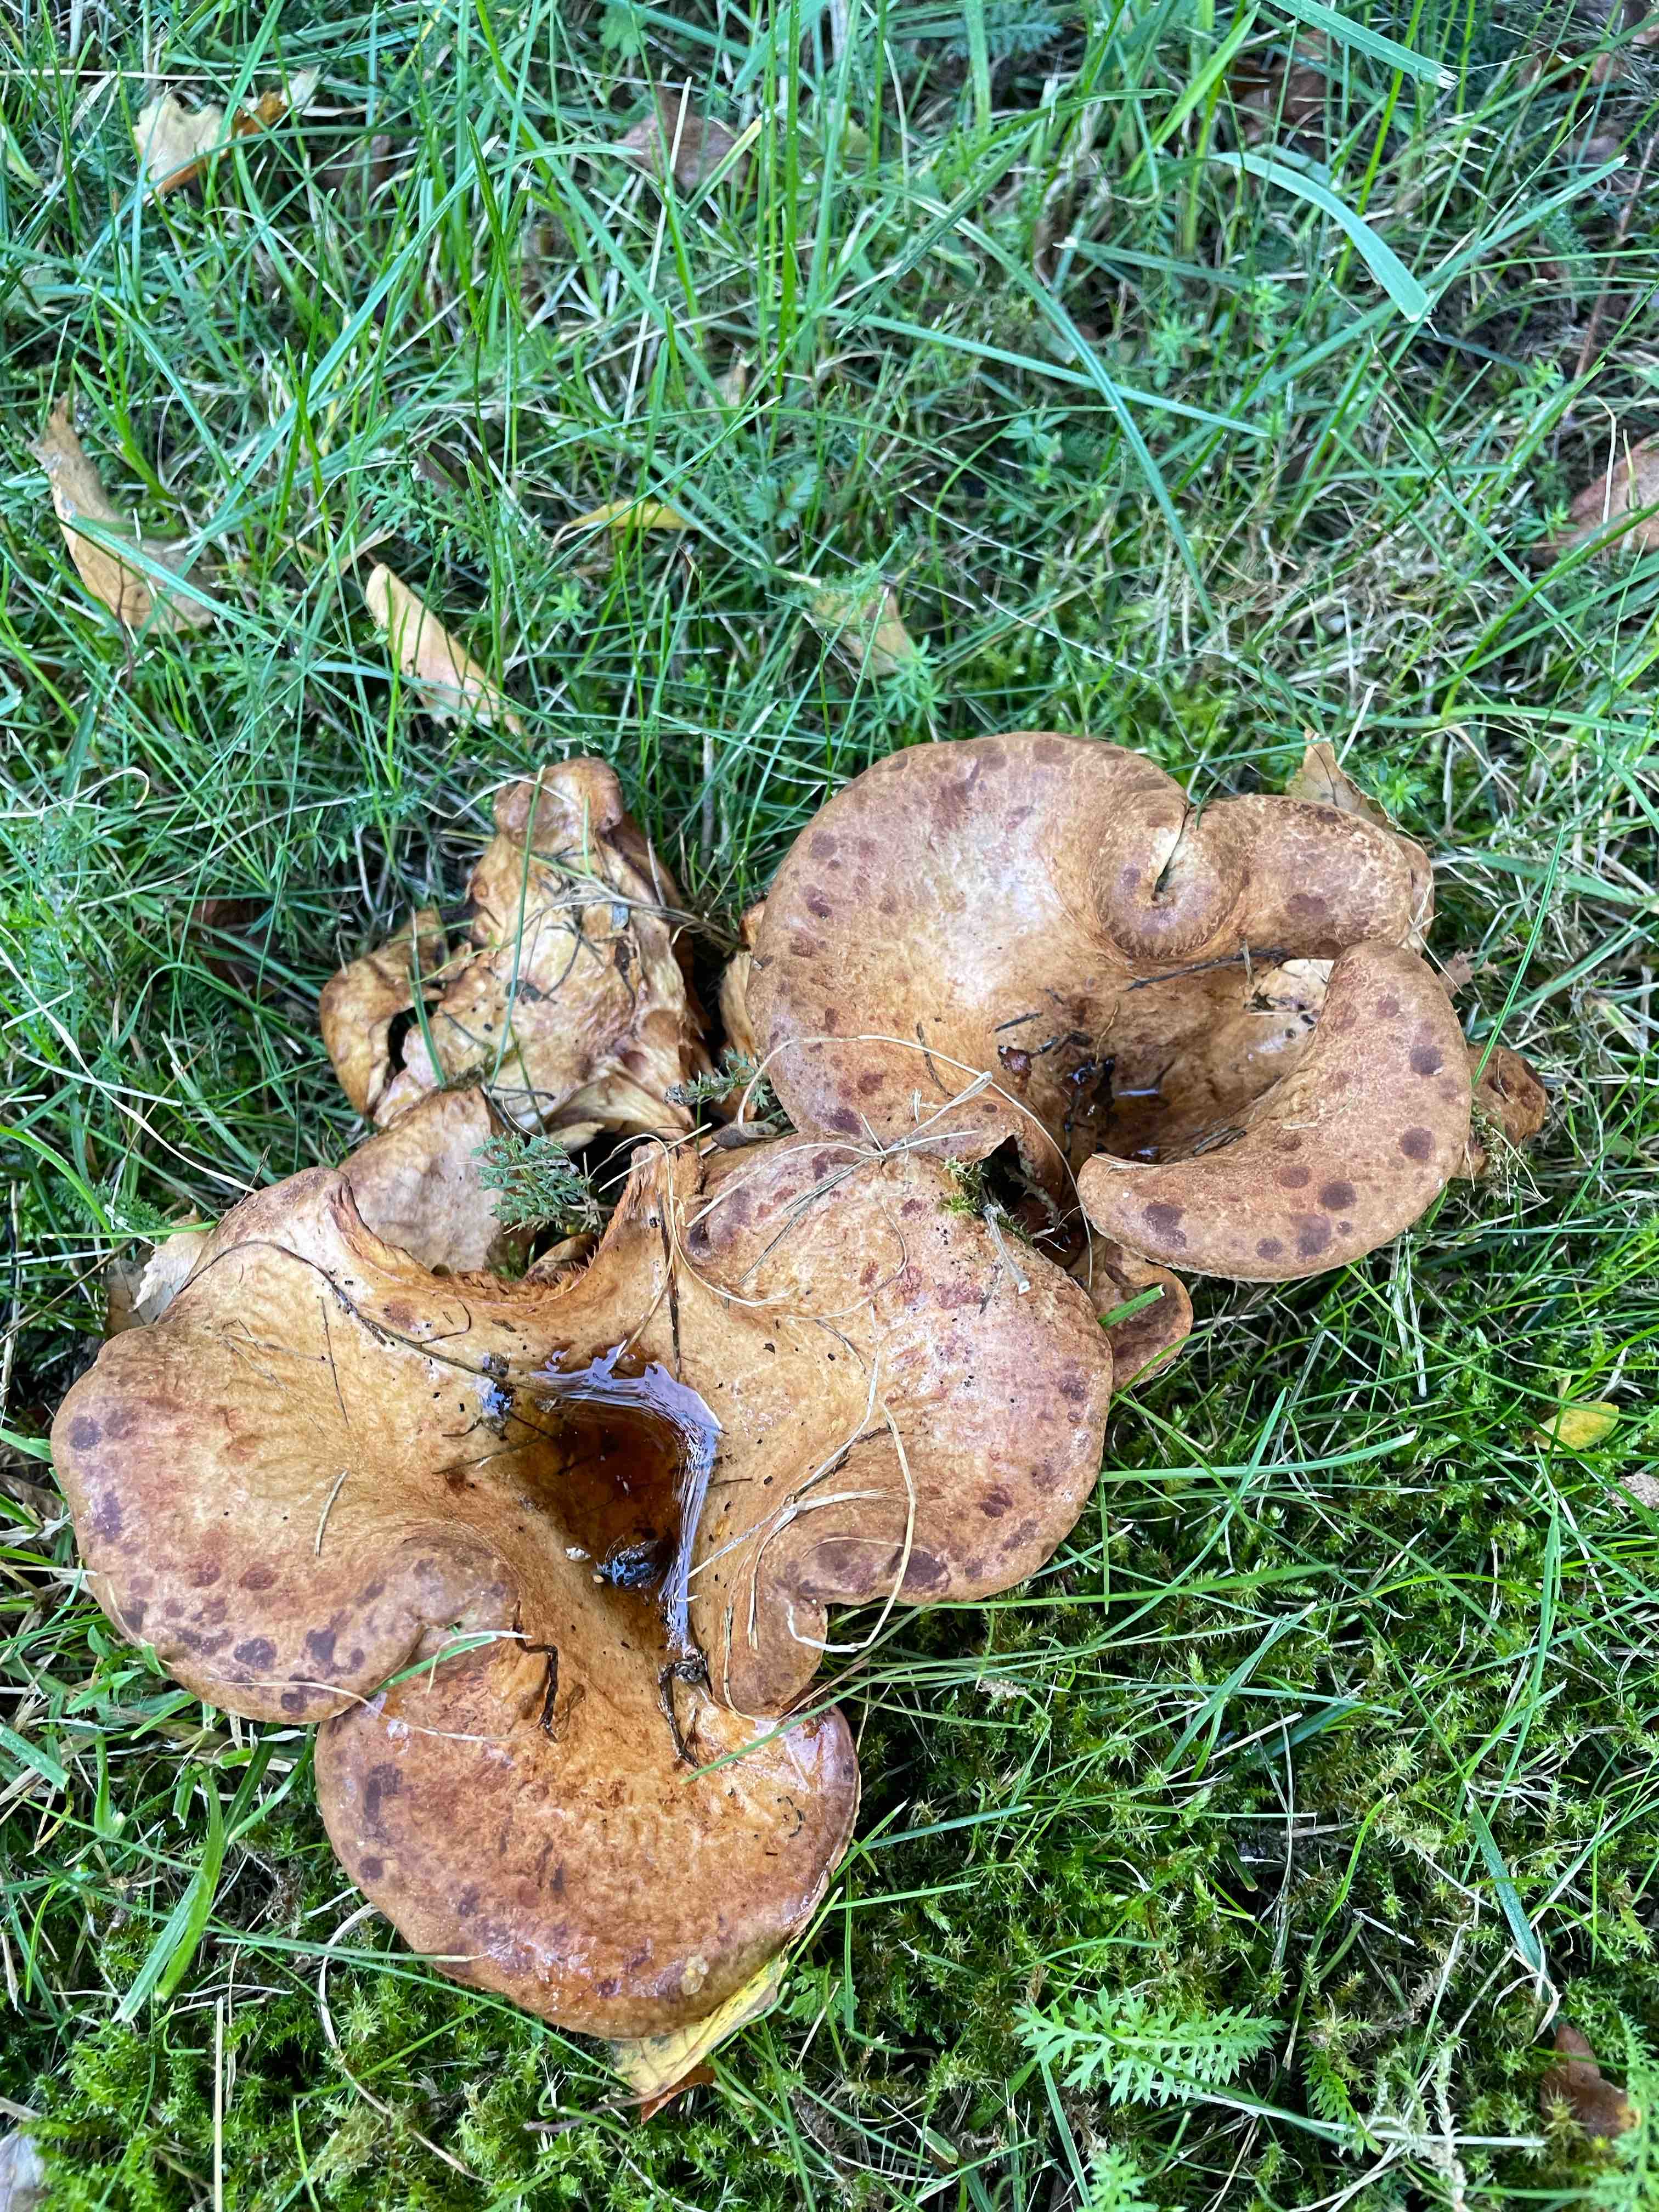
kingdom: Fungi
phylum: Basidiomycota
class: Agaricomycetes
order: Boletales
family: Paxillaceae
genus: Paxillus
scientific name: Paxillus
